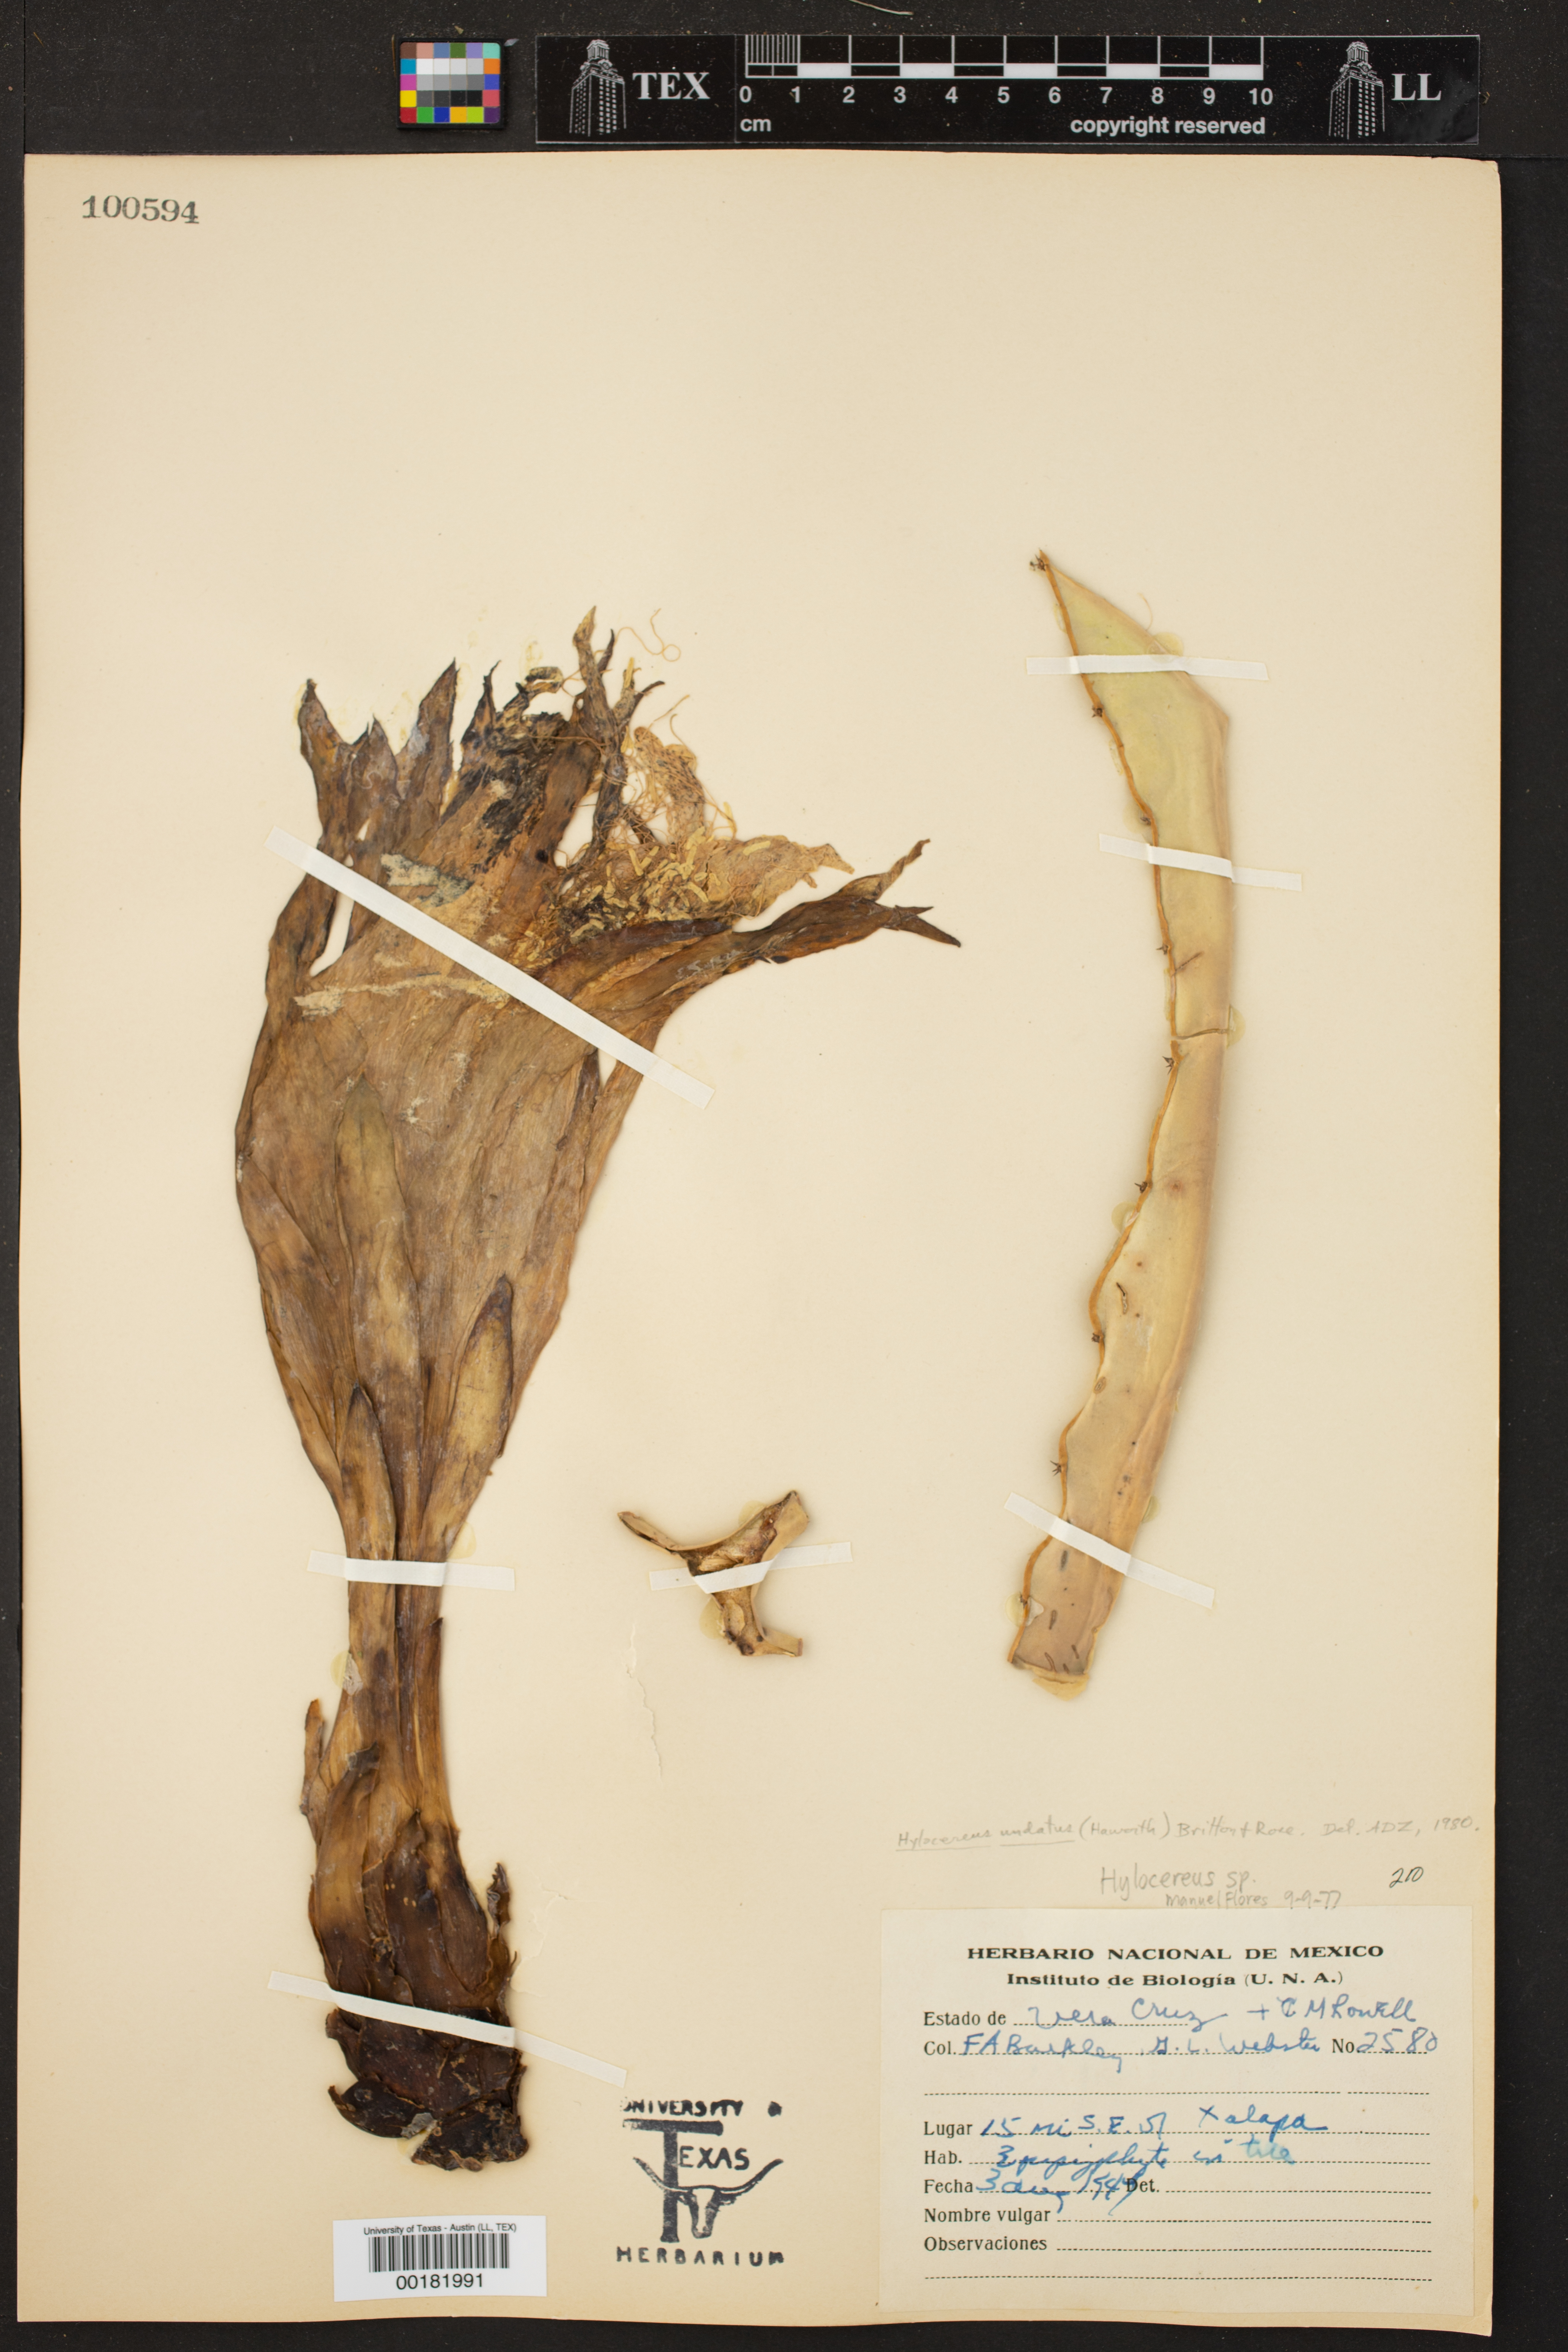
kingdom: Plantae
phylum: Tracheophyta
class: Magnoliopsida
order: Caryophyllales
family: Cactaceae
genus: Selenicereus
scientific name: Selenicereus undatus
